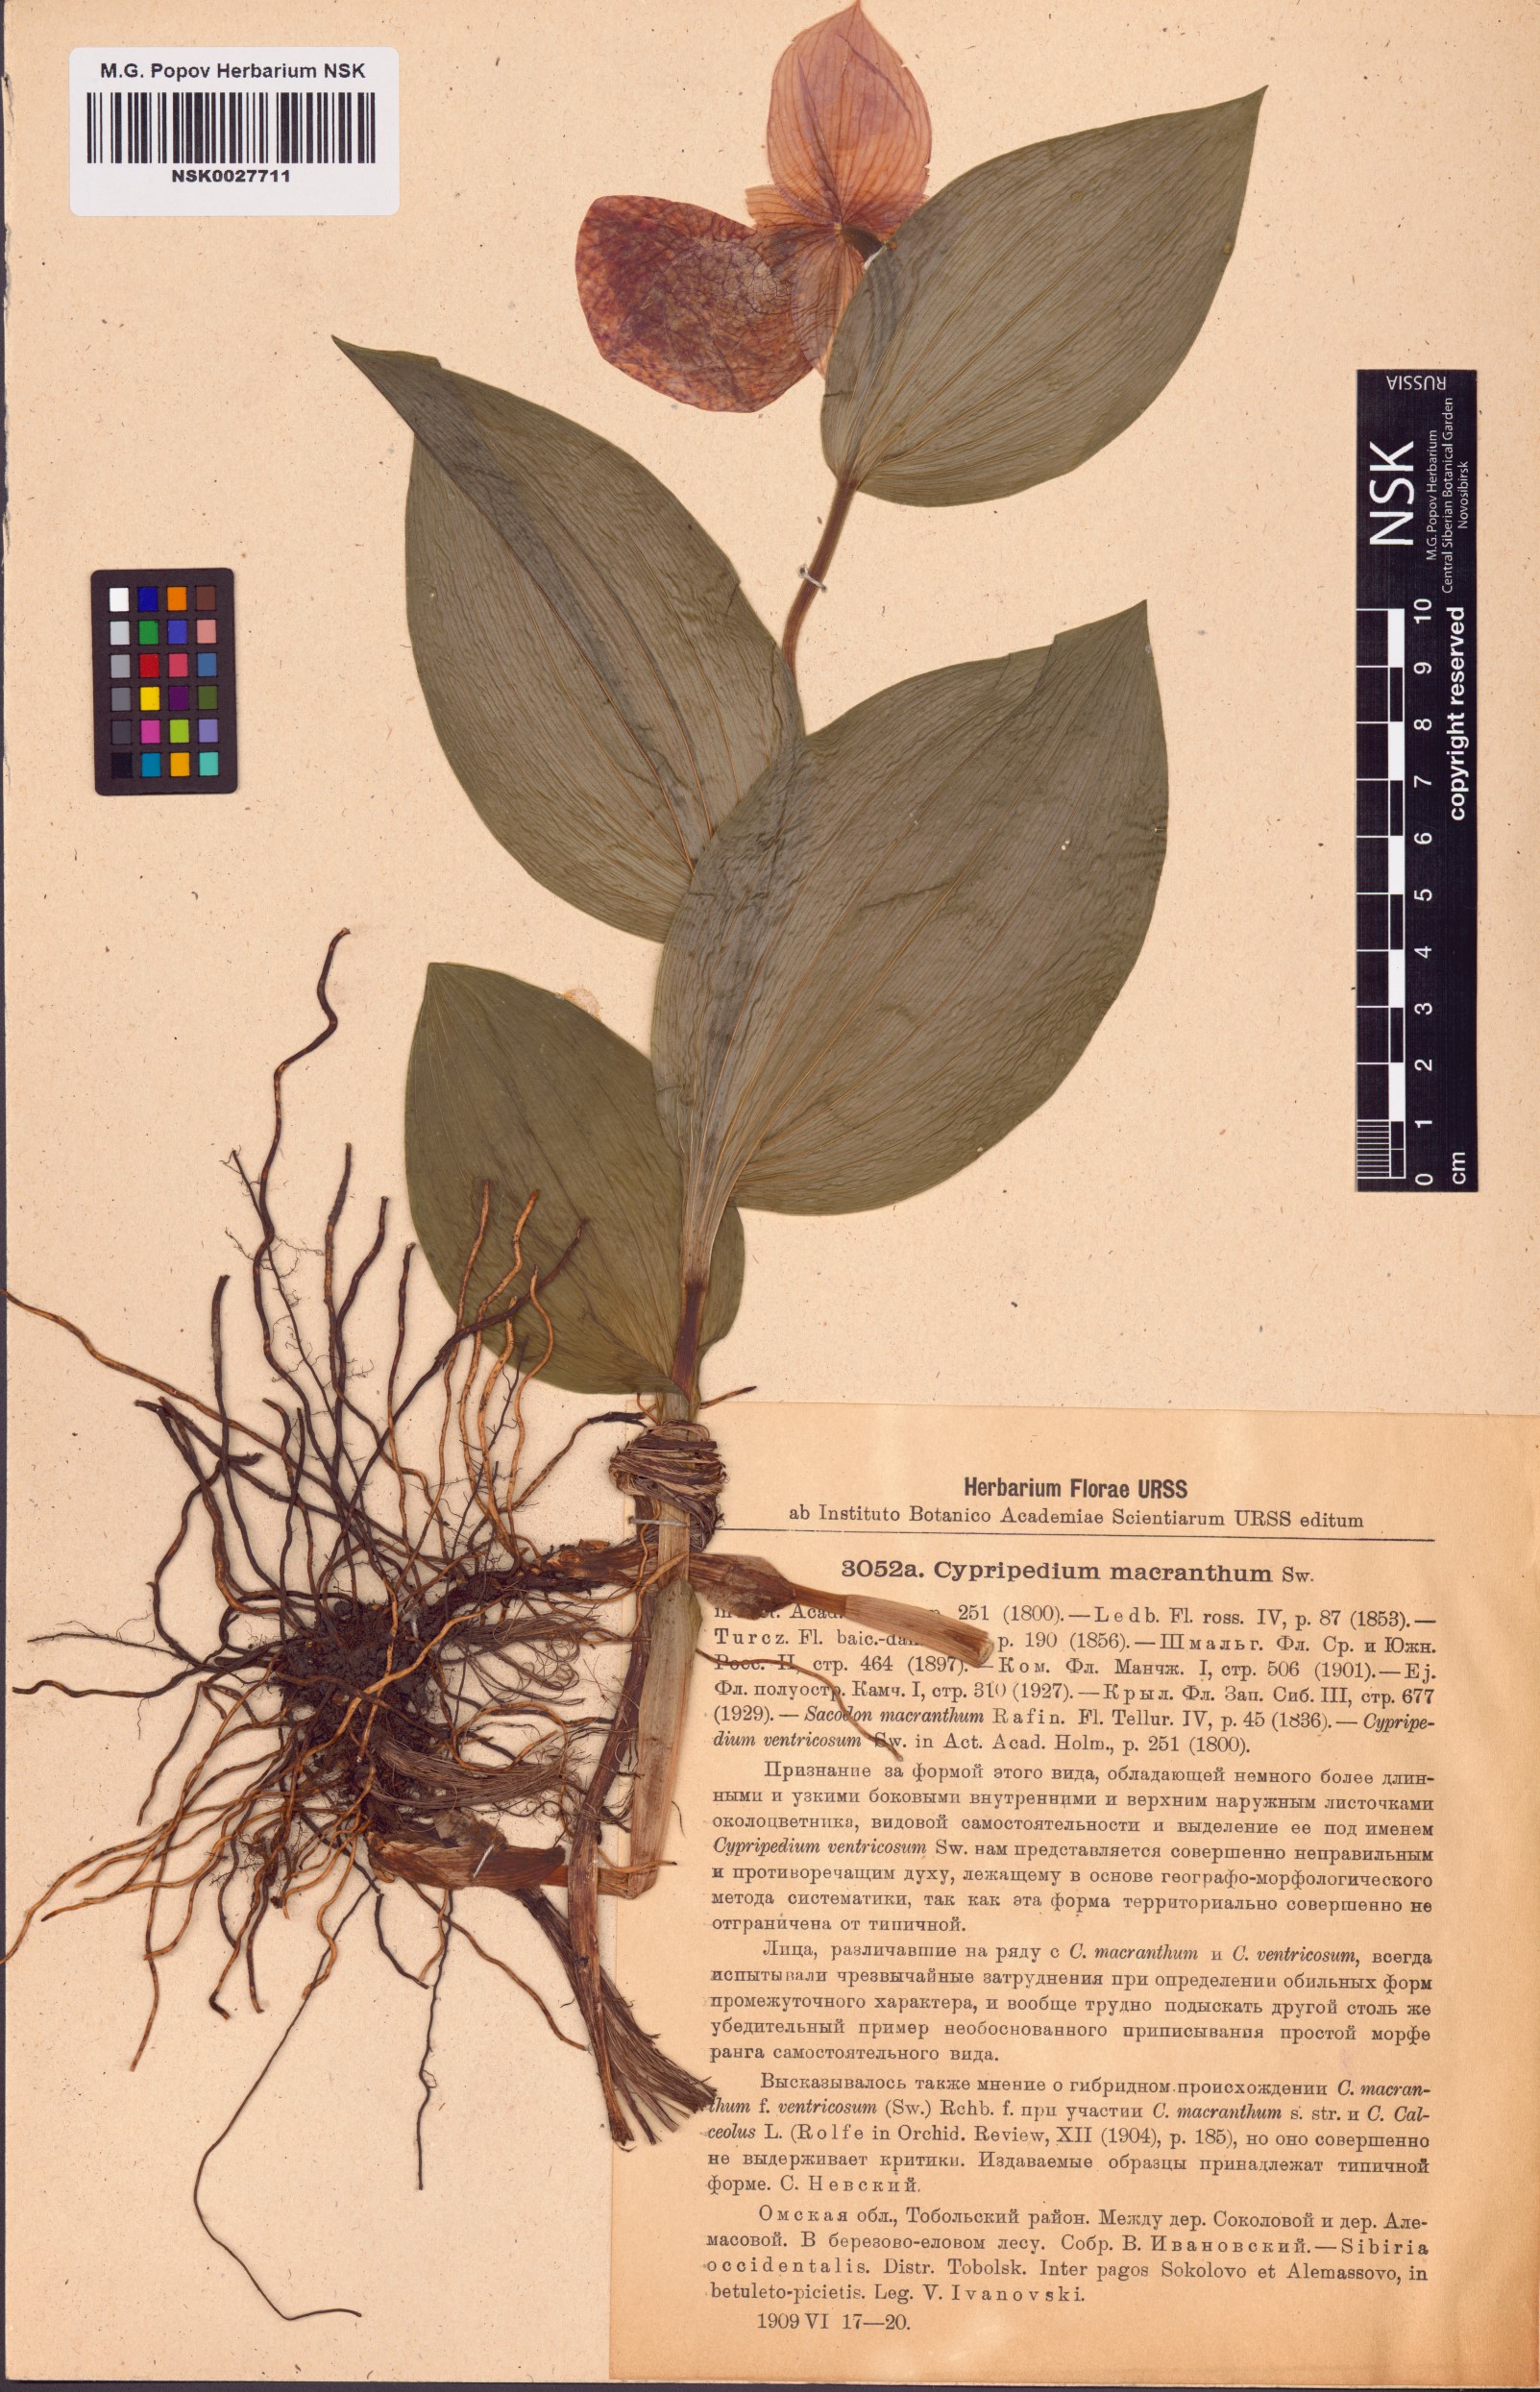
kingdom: Plantae
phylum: Tracheophyta
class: Liliopsida
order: Asparagales
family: Orchidaceae
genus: Cypripedium
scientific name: Cypripedium macranthos
